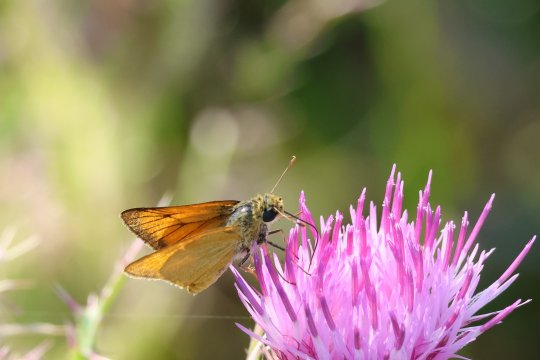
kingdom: Animalia
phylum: Arthropoda
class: Insecta
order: Lepidoptera
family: Hesperiidae
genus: Atrytone
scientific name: Atrytone delaware
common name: Delaware Skipper
